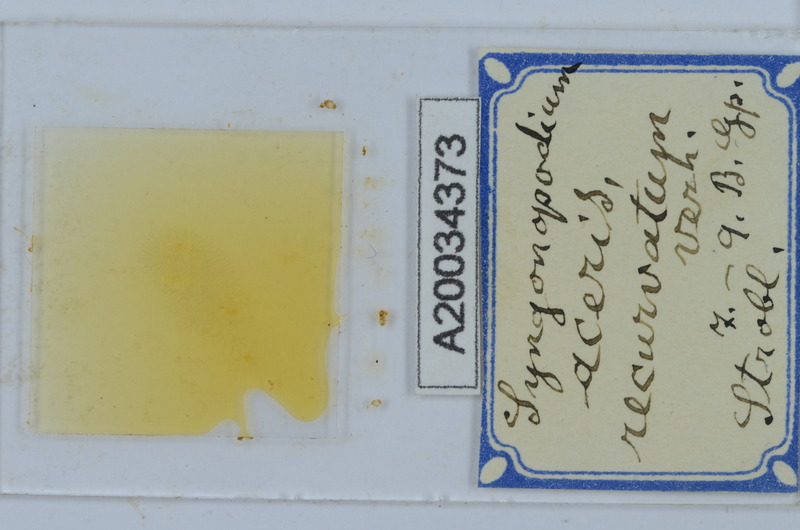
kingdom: Animalia
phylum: Arthropoda
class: Diplopoda
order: Chordeumatida
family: Attemsiidae
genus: Syngonopodium
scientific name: Syngonopodium aceris
